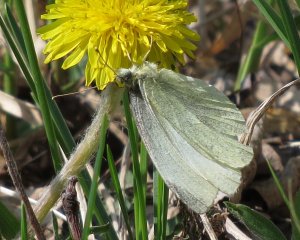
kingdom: Animalia
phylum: Arthropoda
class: Insecta
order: Lepidoptera
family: Pieridae
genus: Pieris
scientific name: Pieris rapae
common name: Cabbage White
